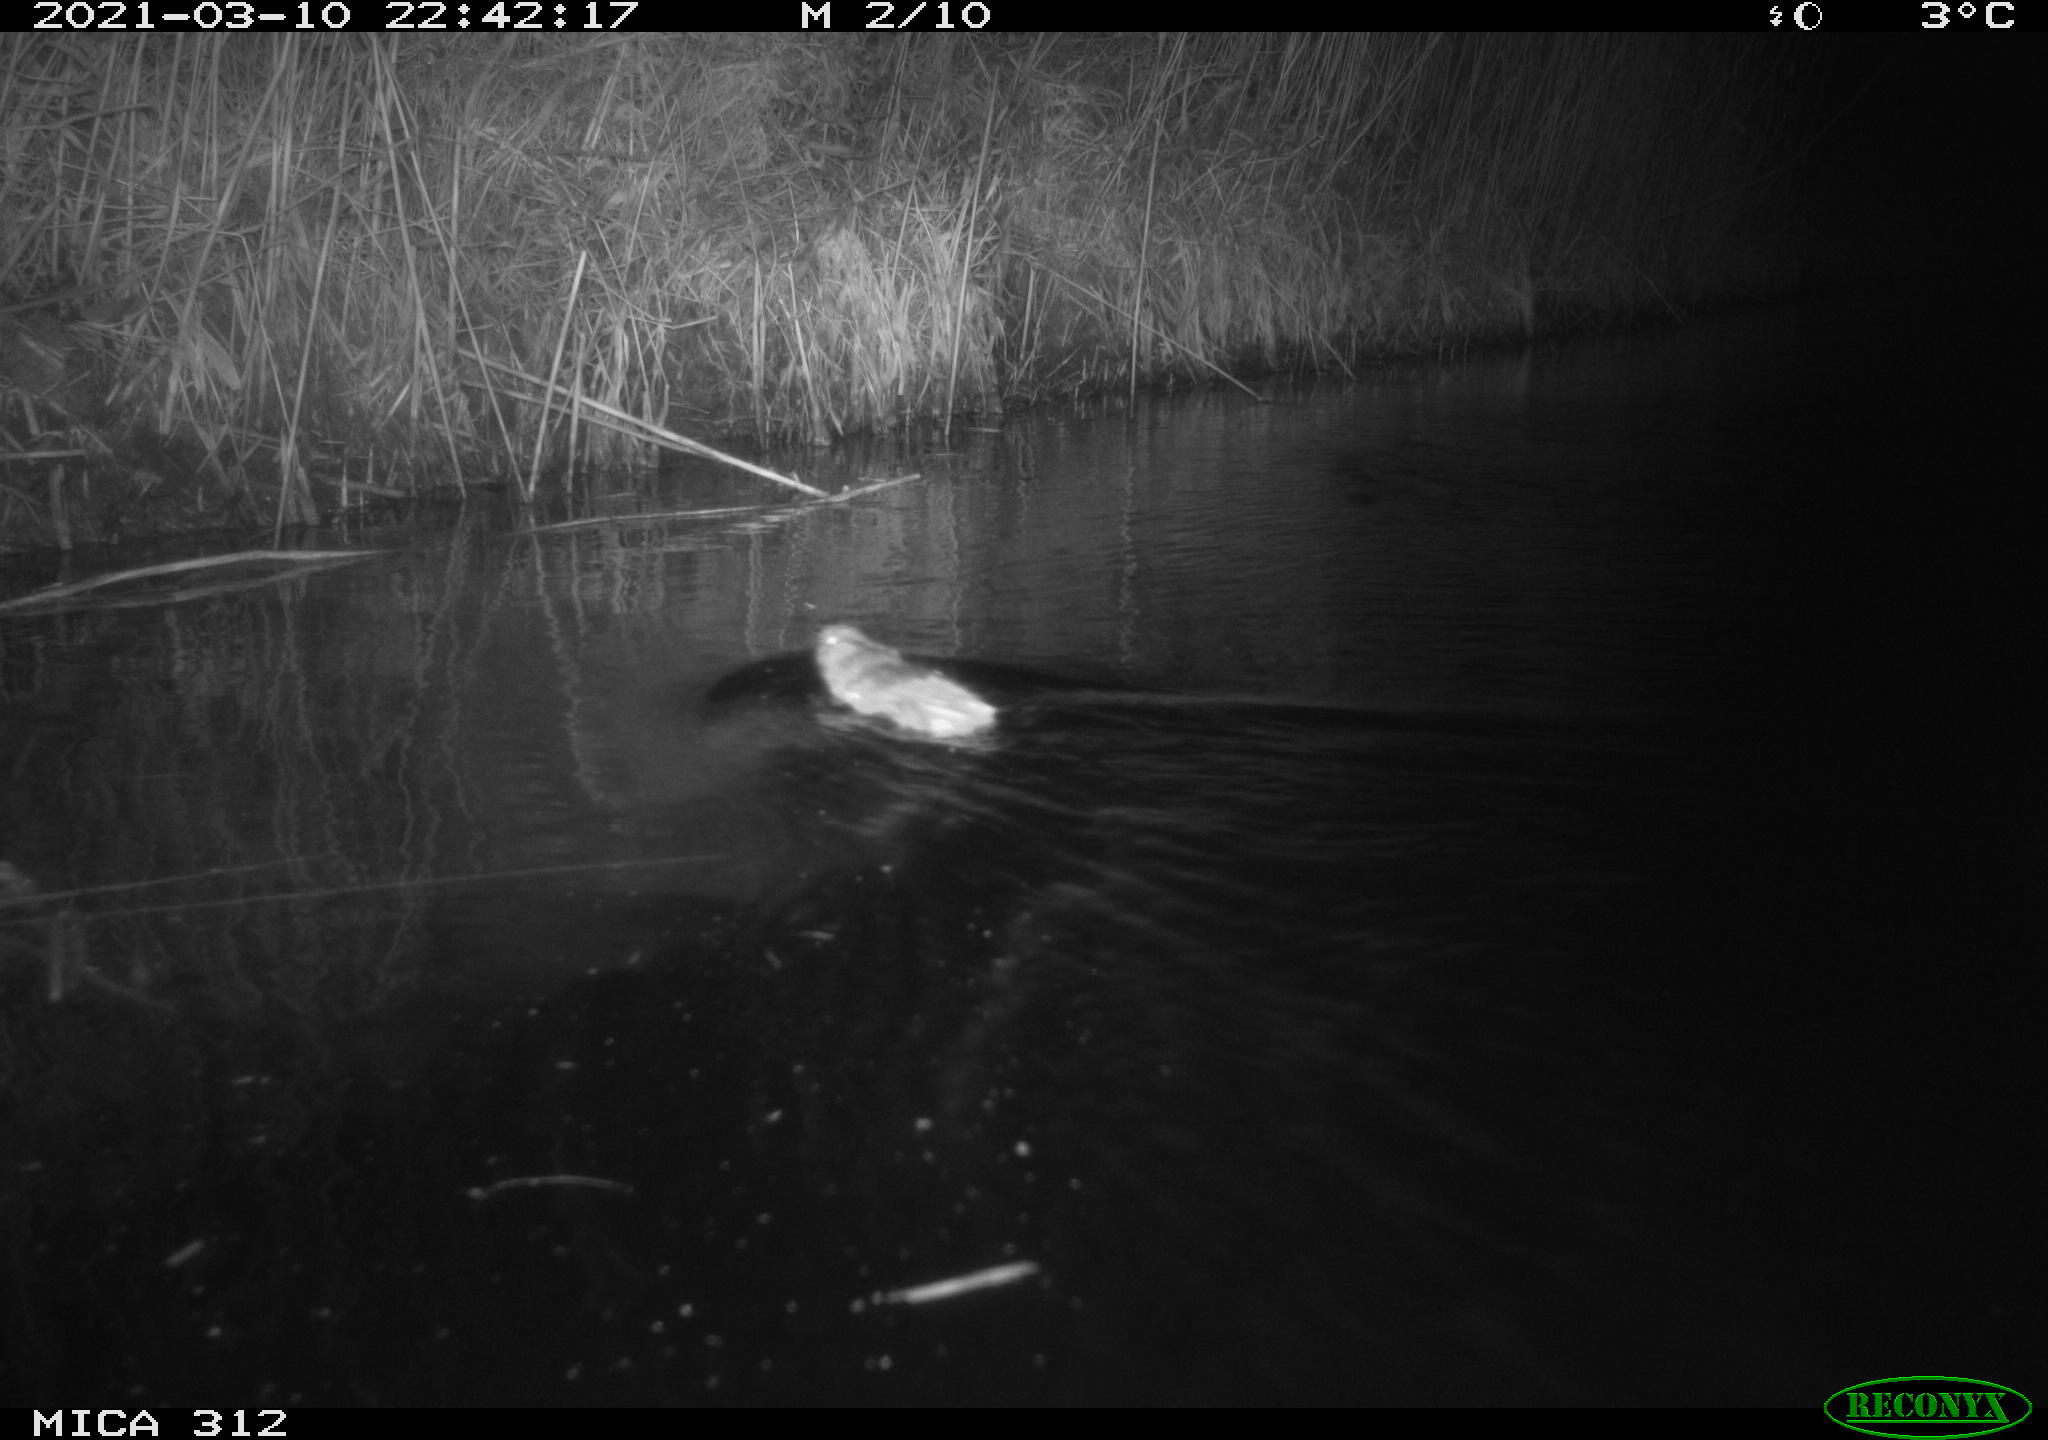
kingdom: Animalia
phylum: Chordata
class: Mammalia
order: Rodentia
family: Muridae
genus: Rattus
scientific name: Rattus norvegicus
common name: Brown rat
